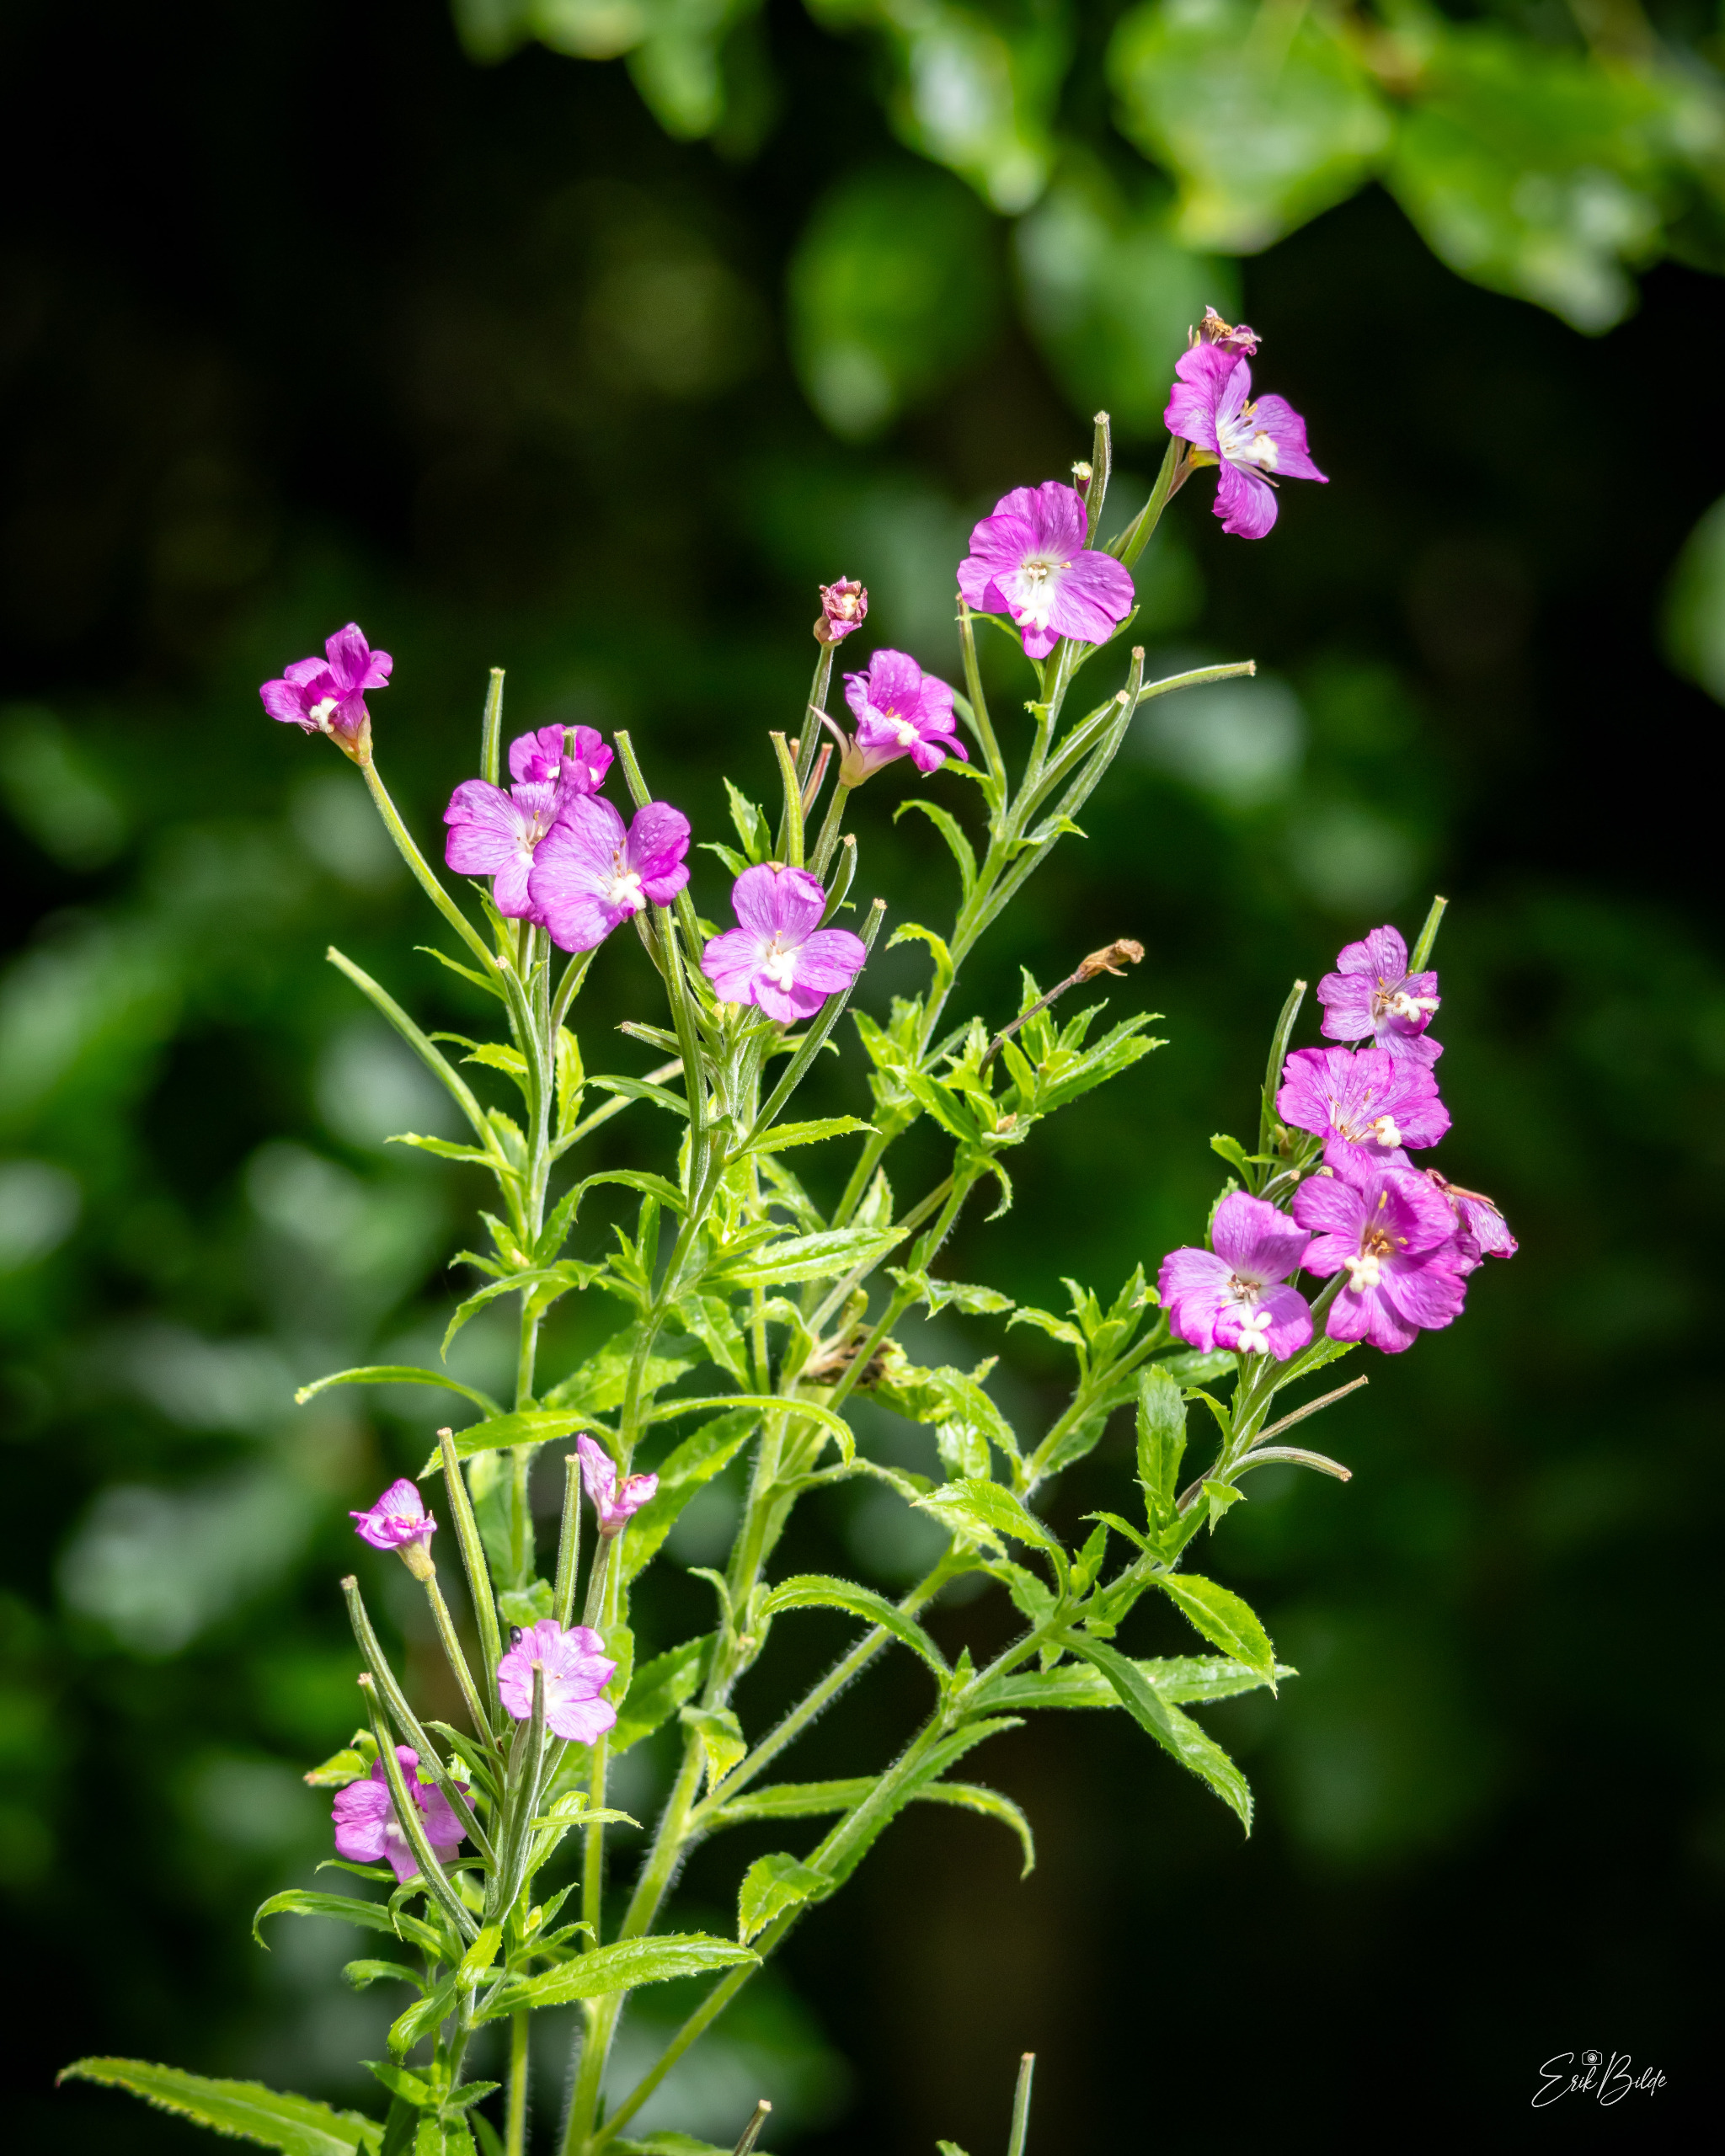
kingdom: Plantae
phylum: Tracheophyta
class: Magnoliopsida
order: Myrtales
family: Onagraceae
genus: Epilobium
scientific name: Epilobium hirsutum
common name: Lådden dueurt
